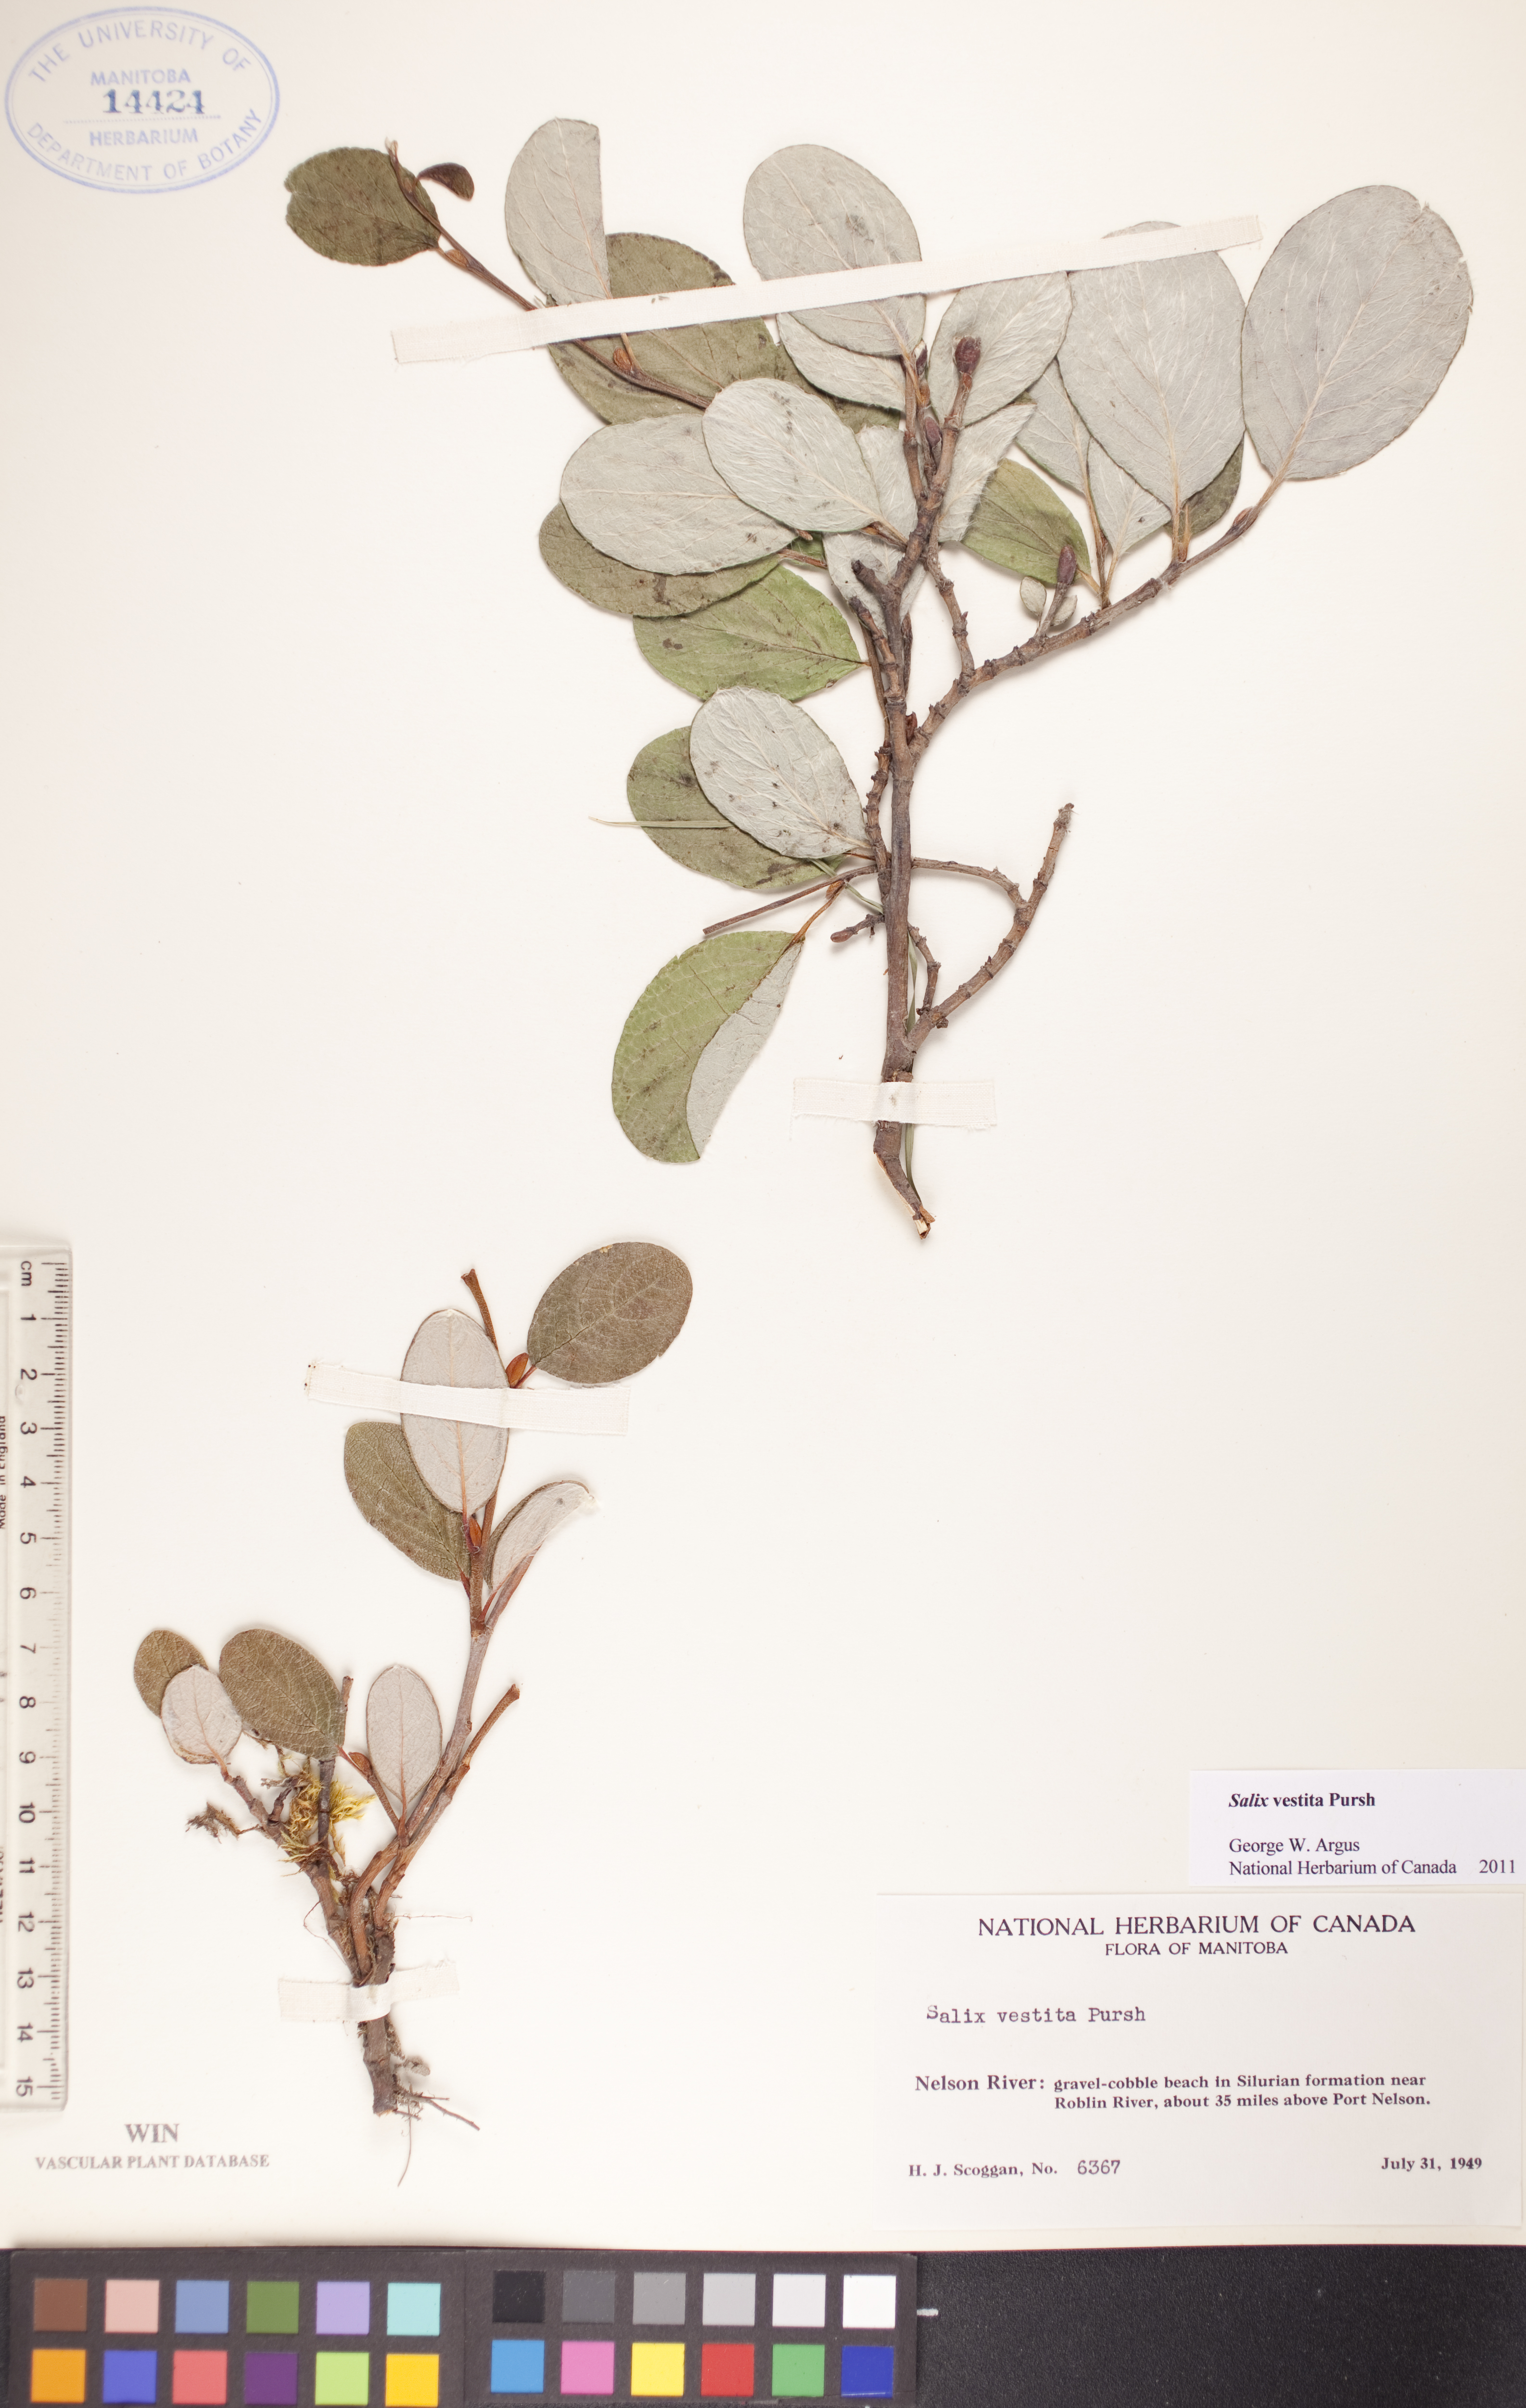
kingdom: Plantae
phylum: Tracheophyta
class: Magnoliopsida
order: Malpighiales
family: Salicaceae
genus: Salix
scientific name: Salix vestita
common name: Hairy willow
